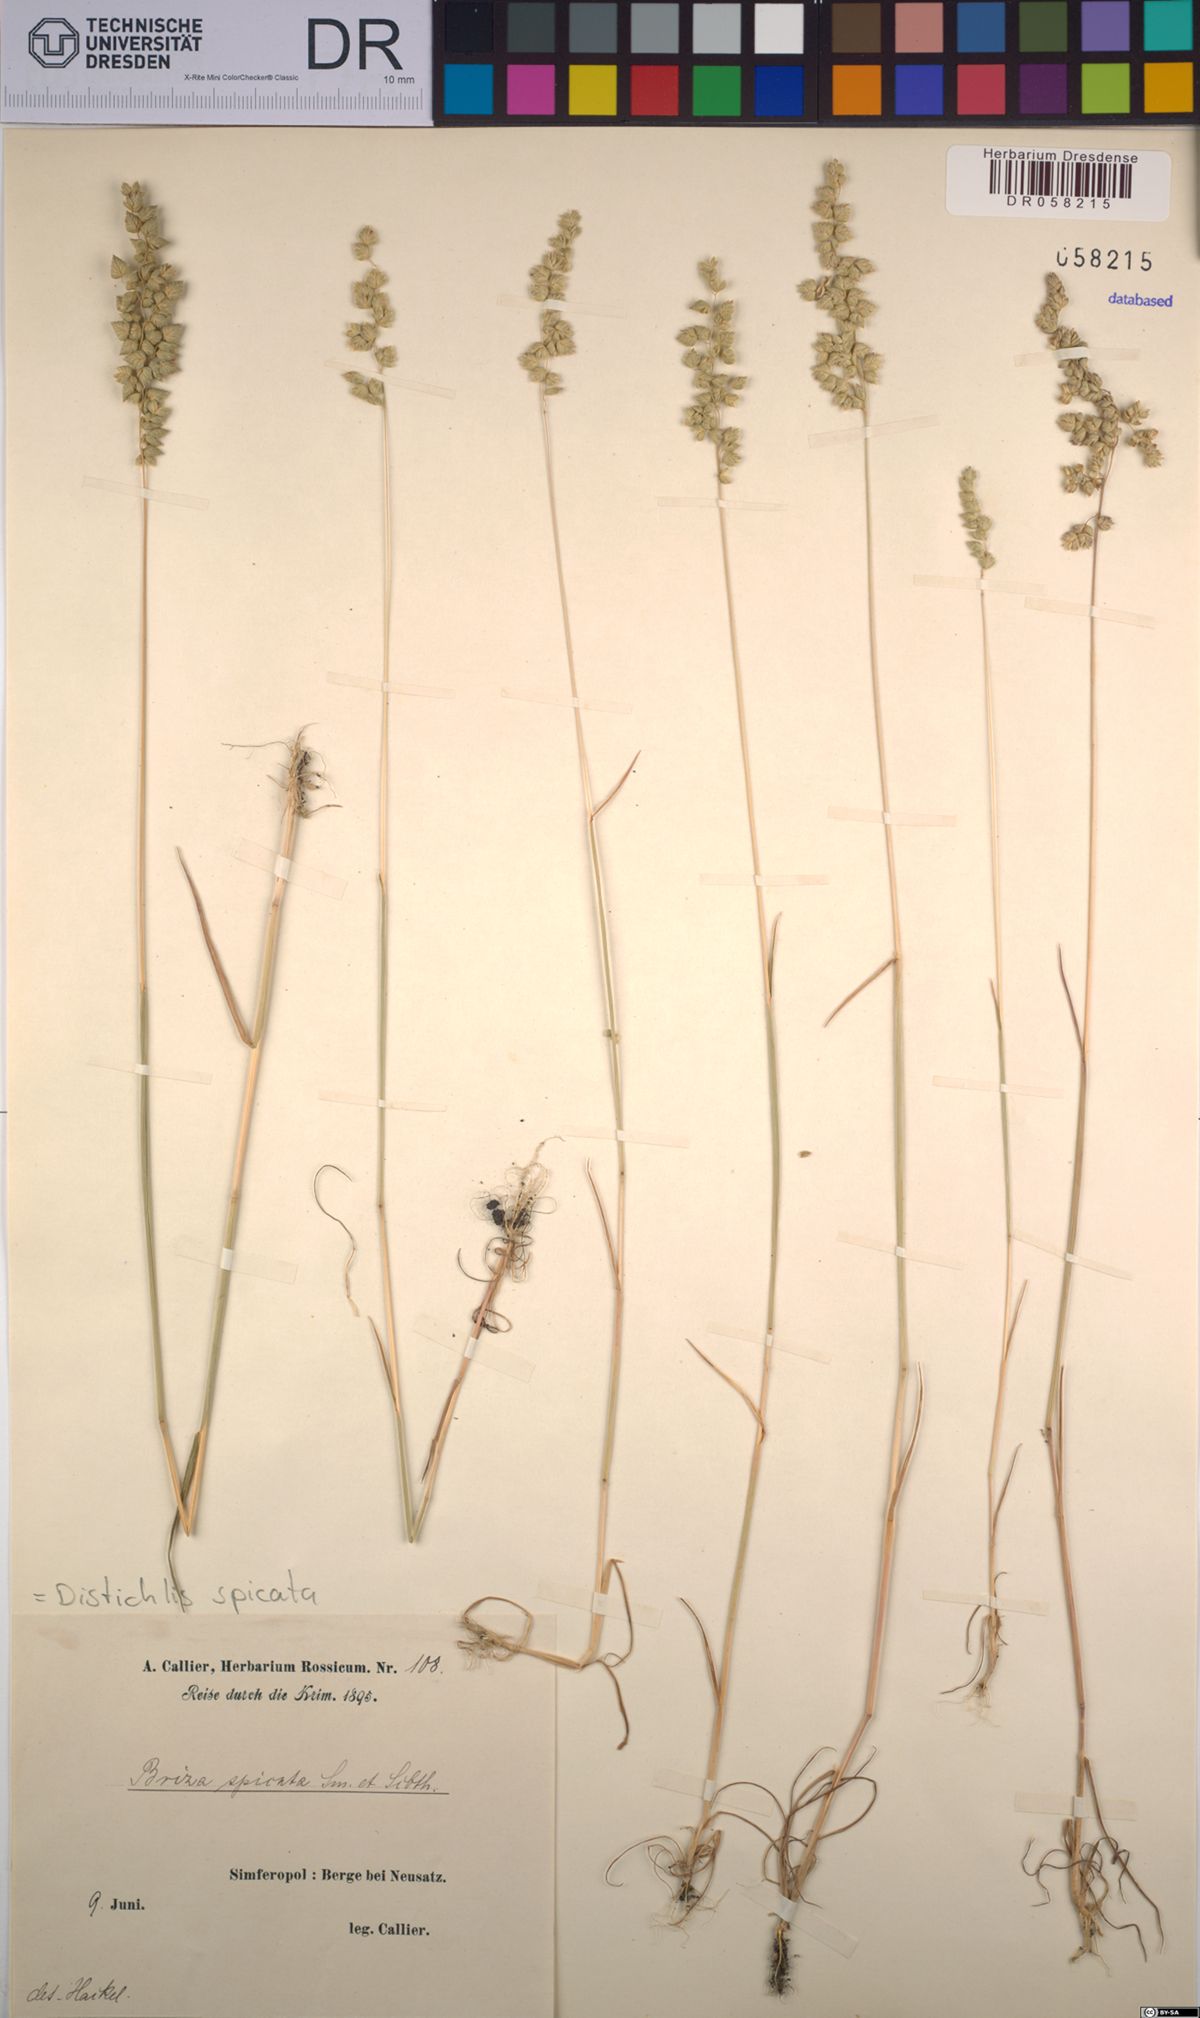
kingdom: Plantae
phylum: Tracheophyta
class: Liliopsida
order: Poales
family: Poaceae
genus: Distichlis
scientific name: Distichlis spicata
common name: Saltgrass
